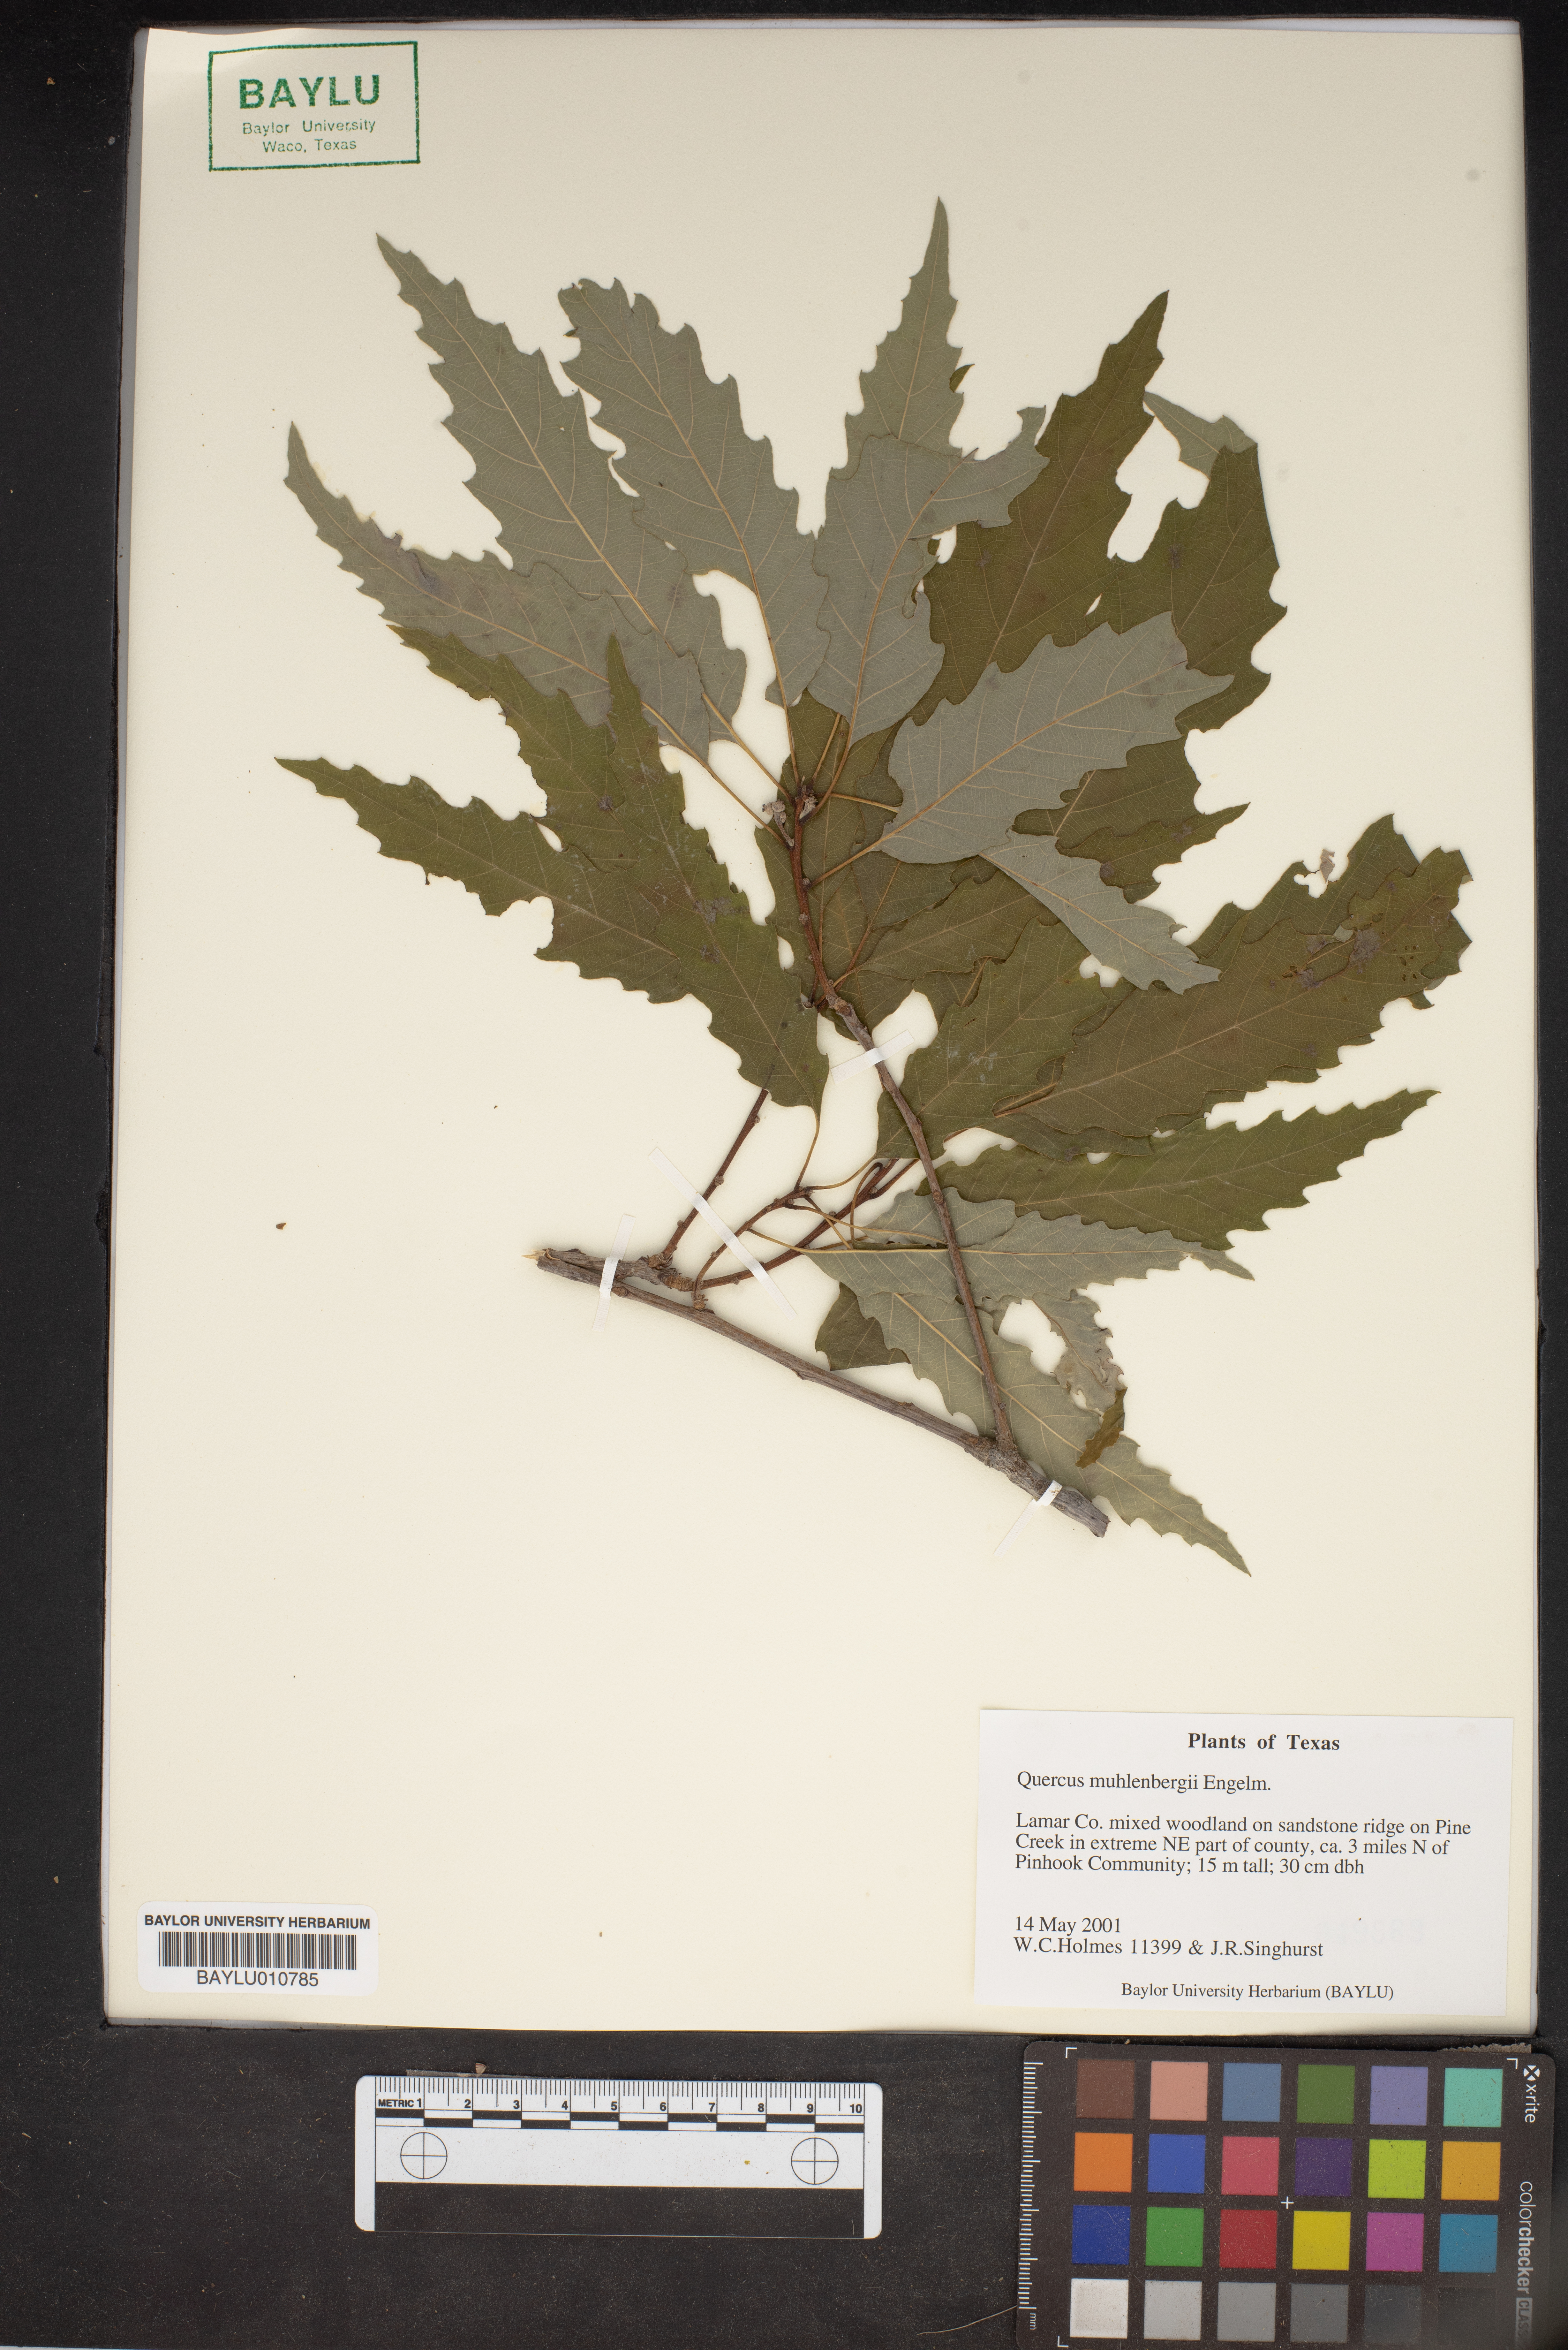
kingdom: Plantae
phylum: Tracheophyta
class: Magnoliopsida
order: Fagales
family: Fagaceae
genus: Quercus
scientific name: Quercus muehlenbergii
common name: Chinkapin oak
